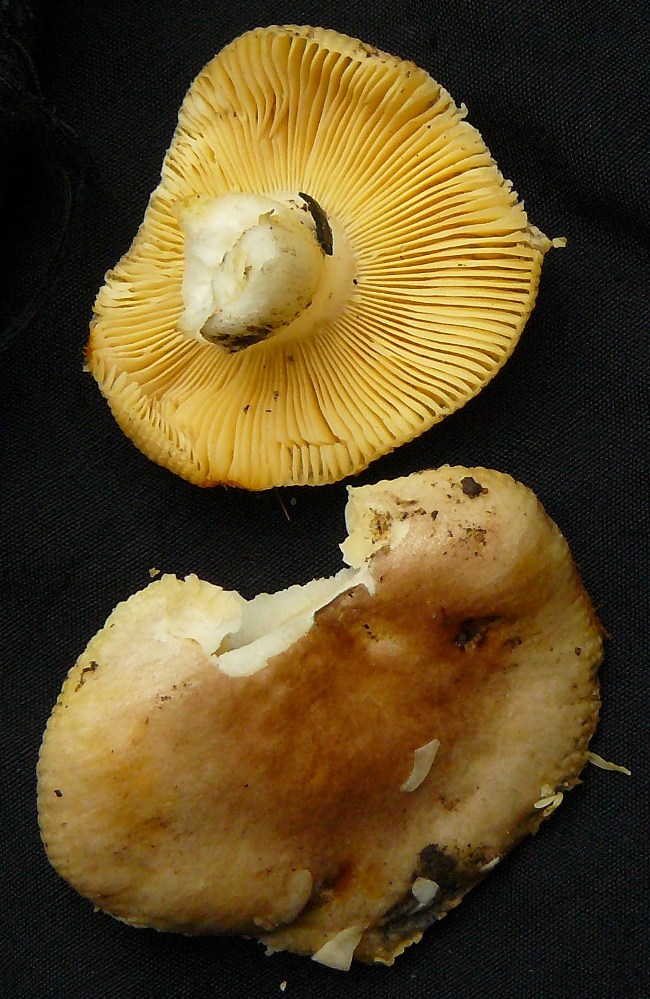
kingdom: Fungi
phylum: Basidiomycota
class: Agaricomycetes
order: Russulales
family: Russulaceae
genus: Russula
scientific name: Russula odorata
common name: duft-skørhat
